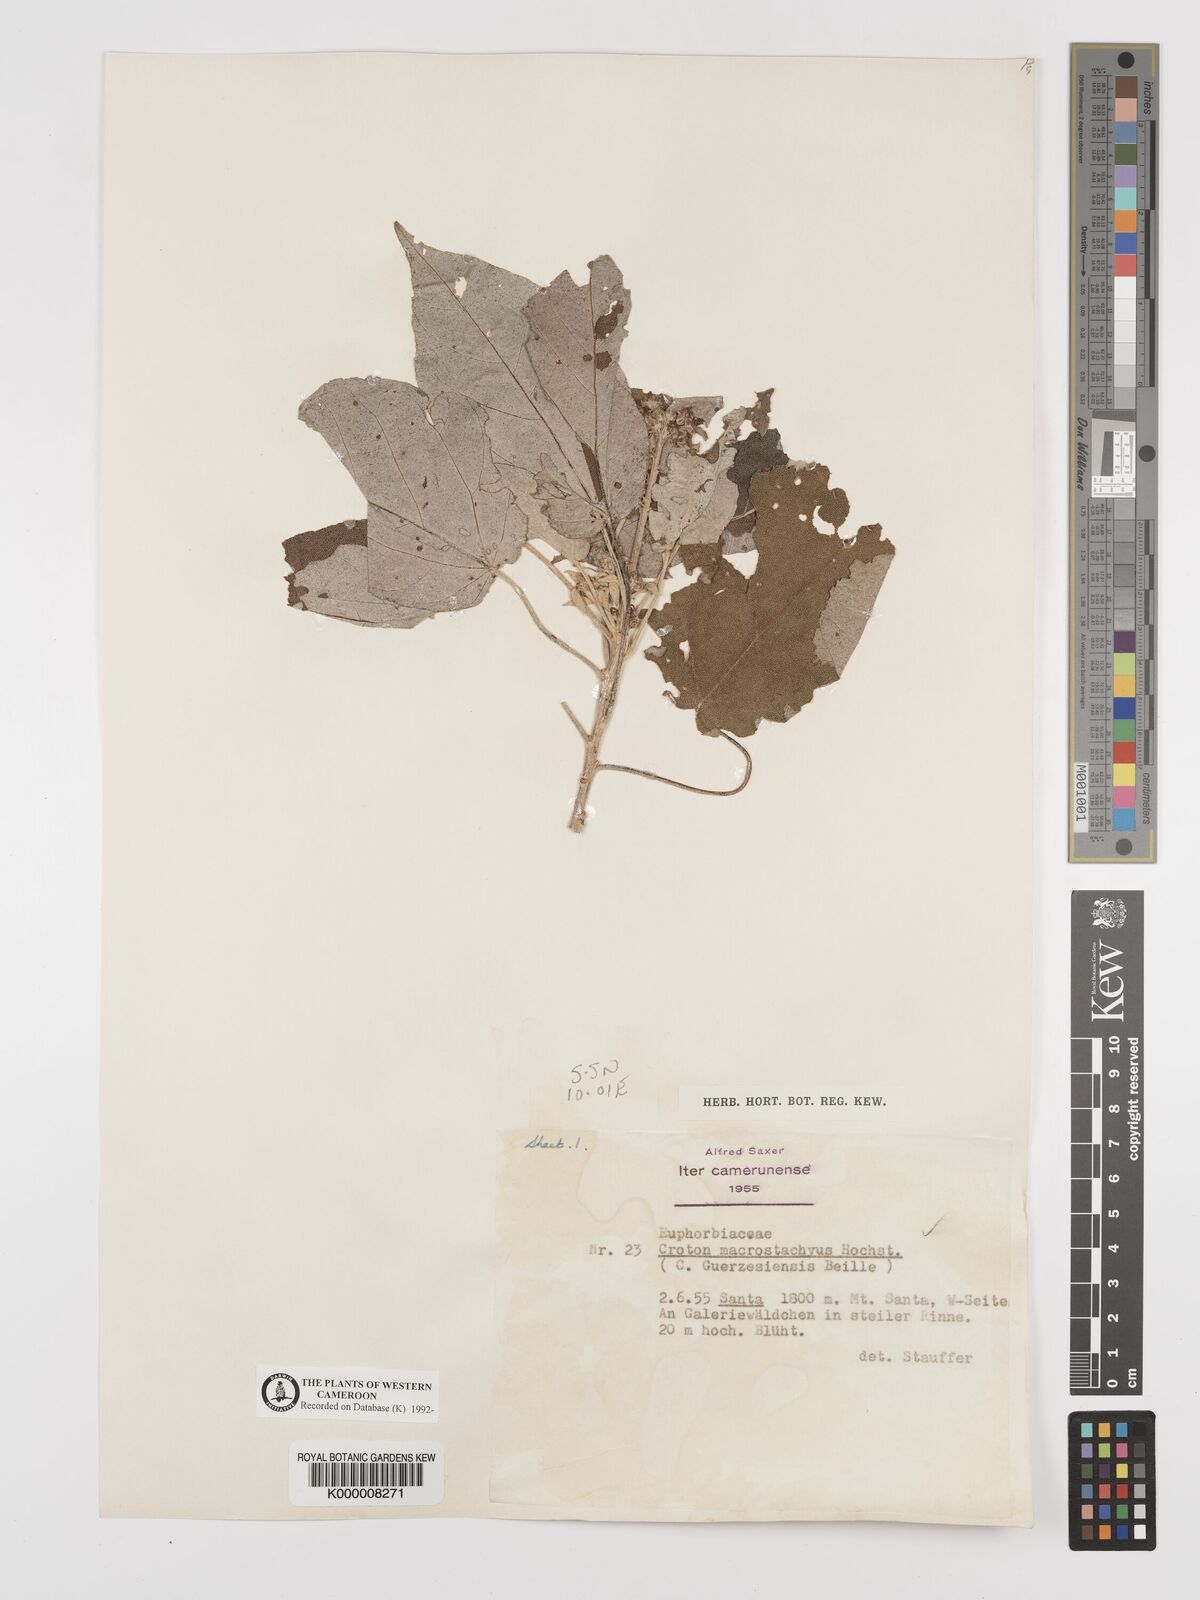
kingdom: Plantae
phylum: Tracheophyta
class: Magnoliopsida
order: Malpighiales
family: Euphorbiaceae
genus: Croton
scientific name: Croton macrostachyus
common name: Mutundu
